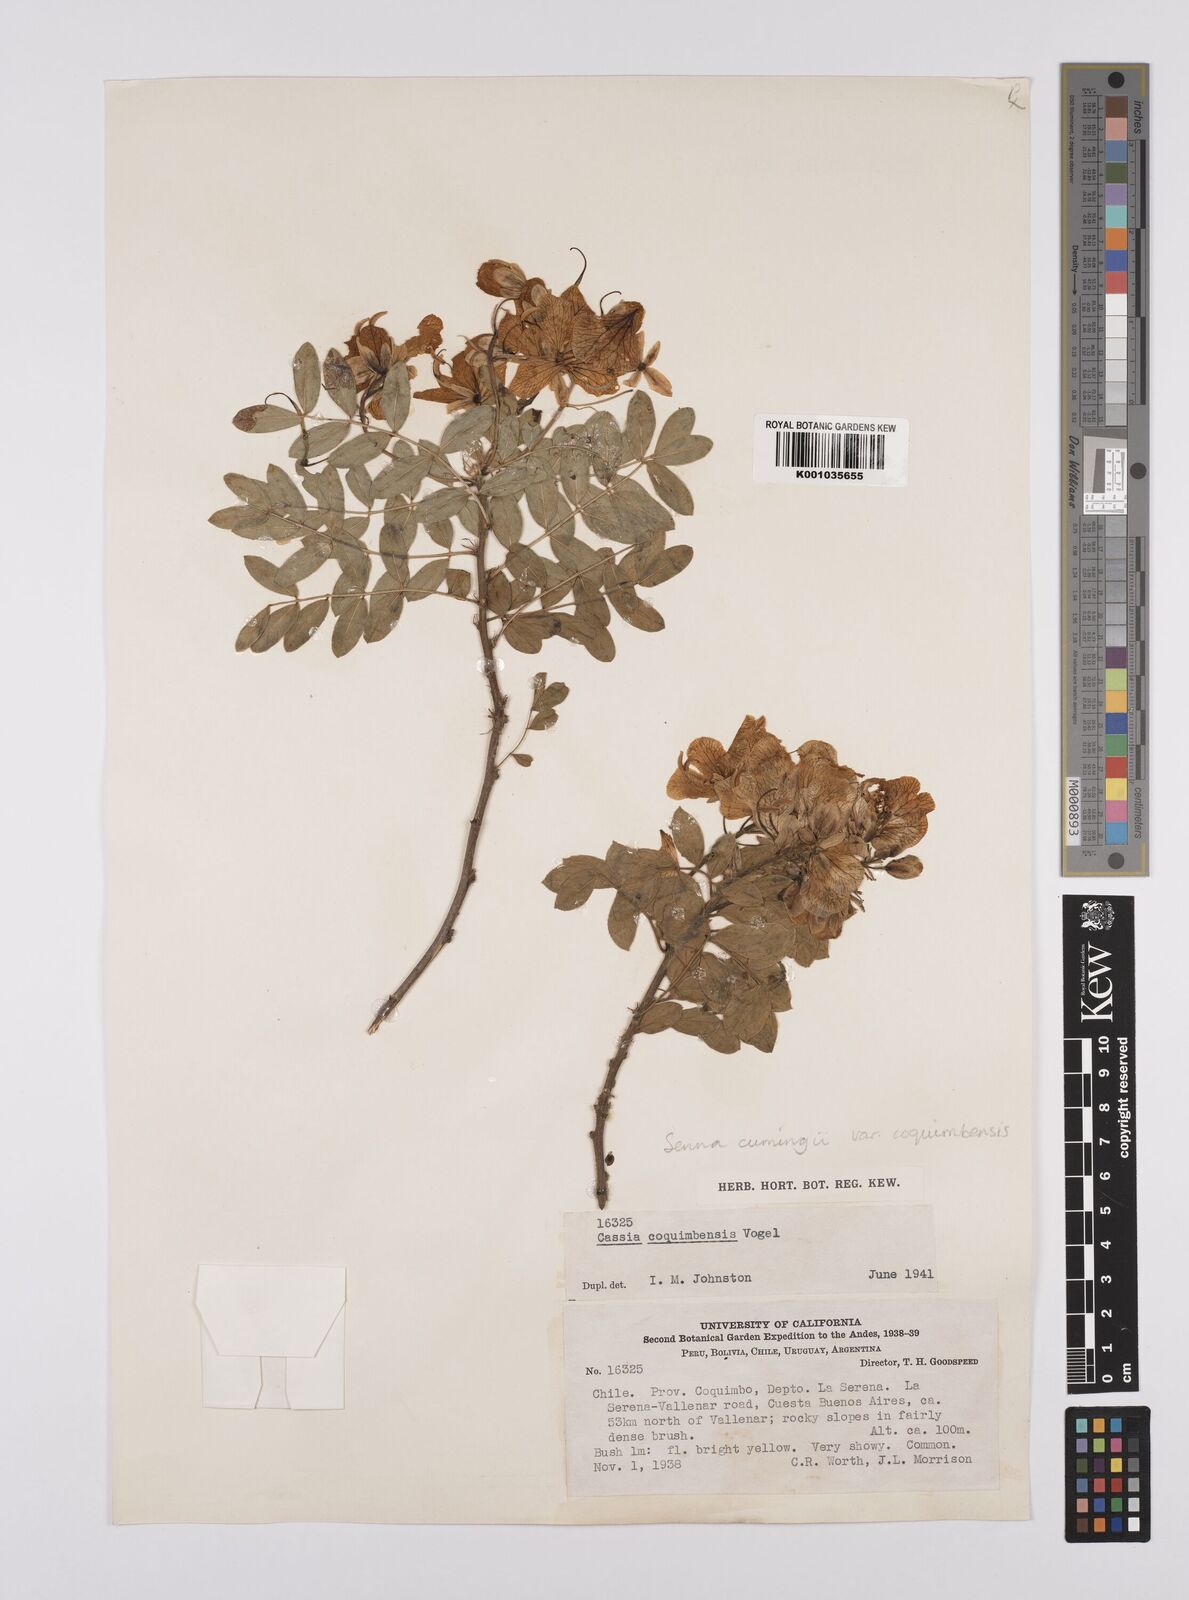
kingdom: Plantae
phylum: Tracheophyta
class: Magnoliopsida
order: Fabales
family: Fabaceae
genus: Senna
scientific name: Senna cumingii
